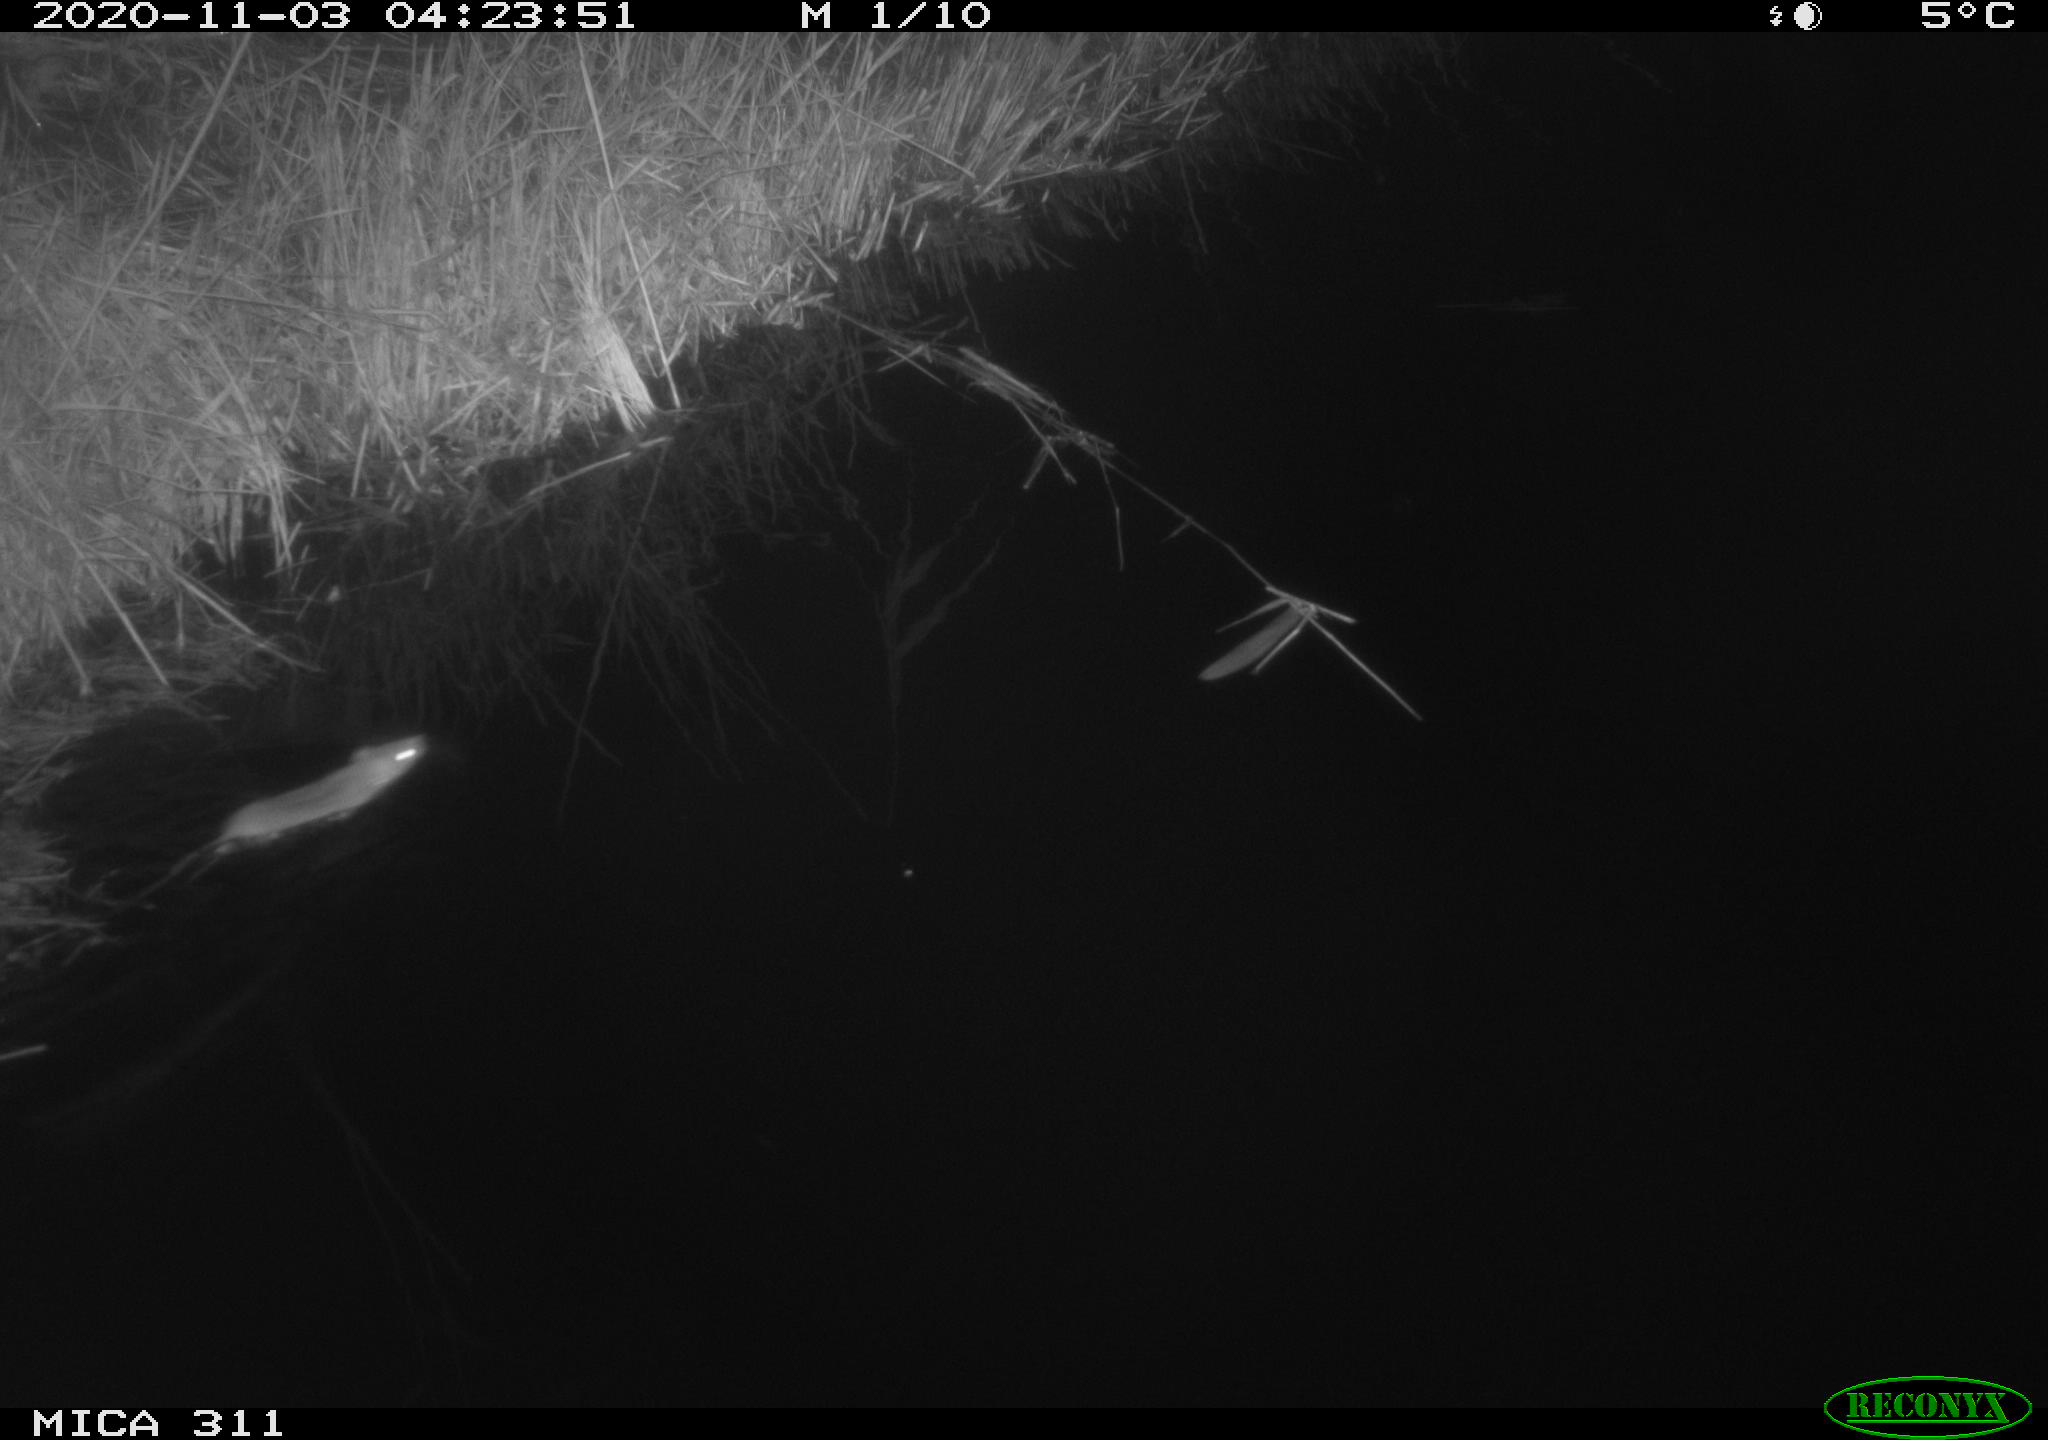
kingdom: Animalia
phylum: Chordata
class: Mammalia
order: Rodentia
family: Muridae
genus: Rattus
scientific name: Rattus norvegicus
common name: Brown rat
